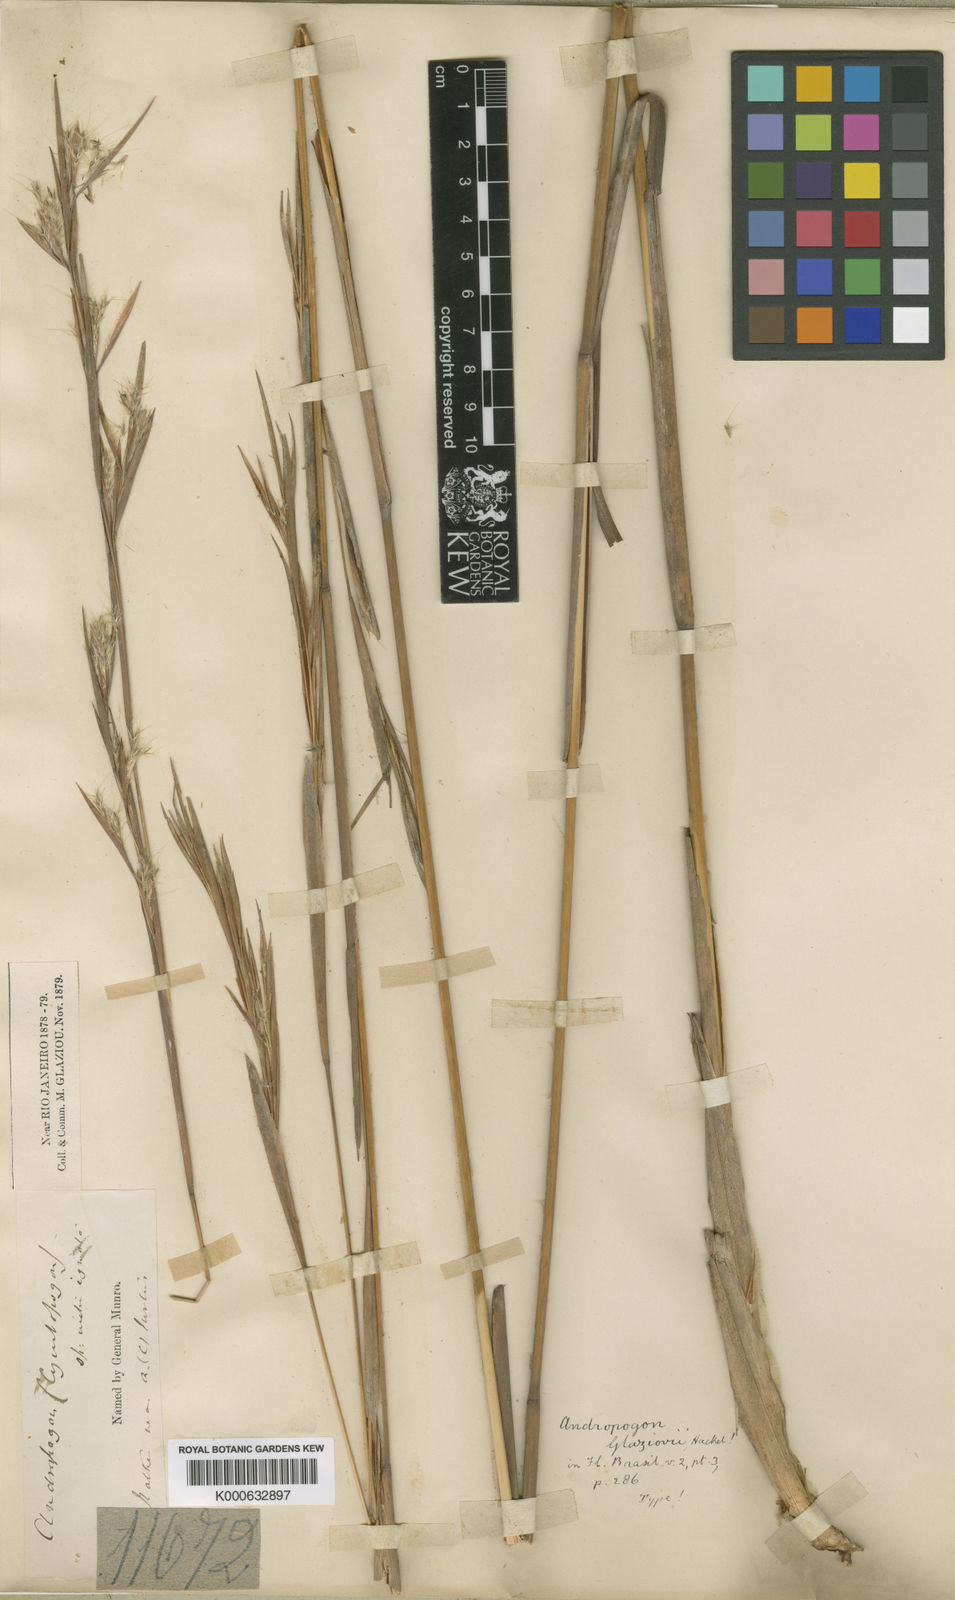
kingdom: Plantae
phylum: Tracheophyta
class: Liliopsida
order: Poales
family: Poaceae
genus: Andropogon
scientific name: Andropogon glaziovii
